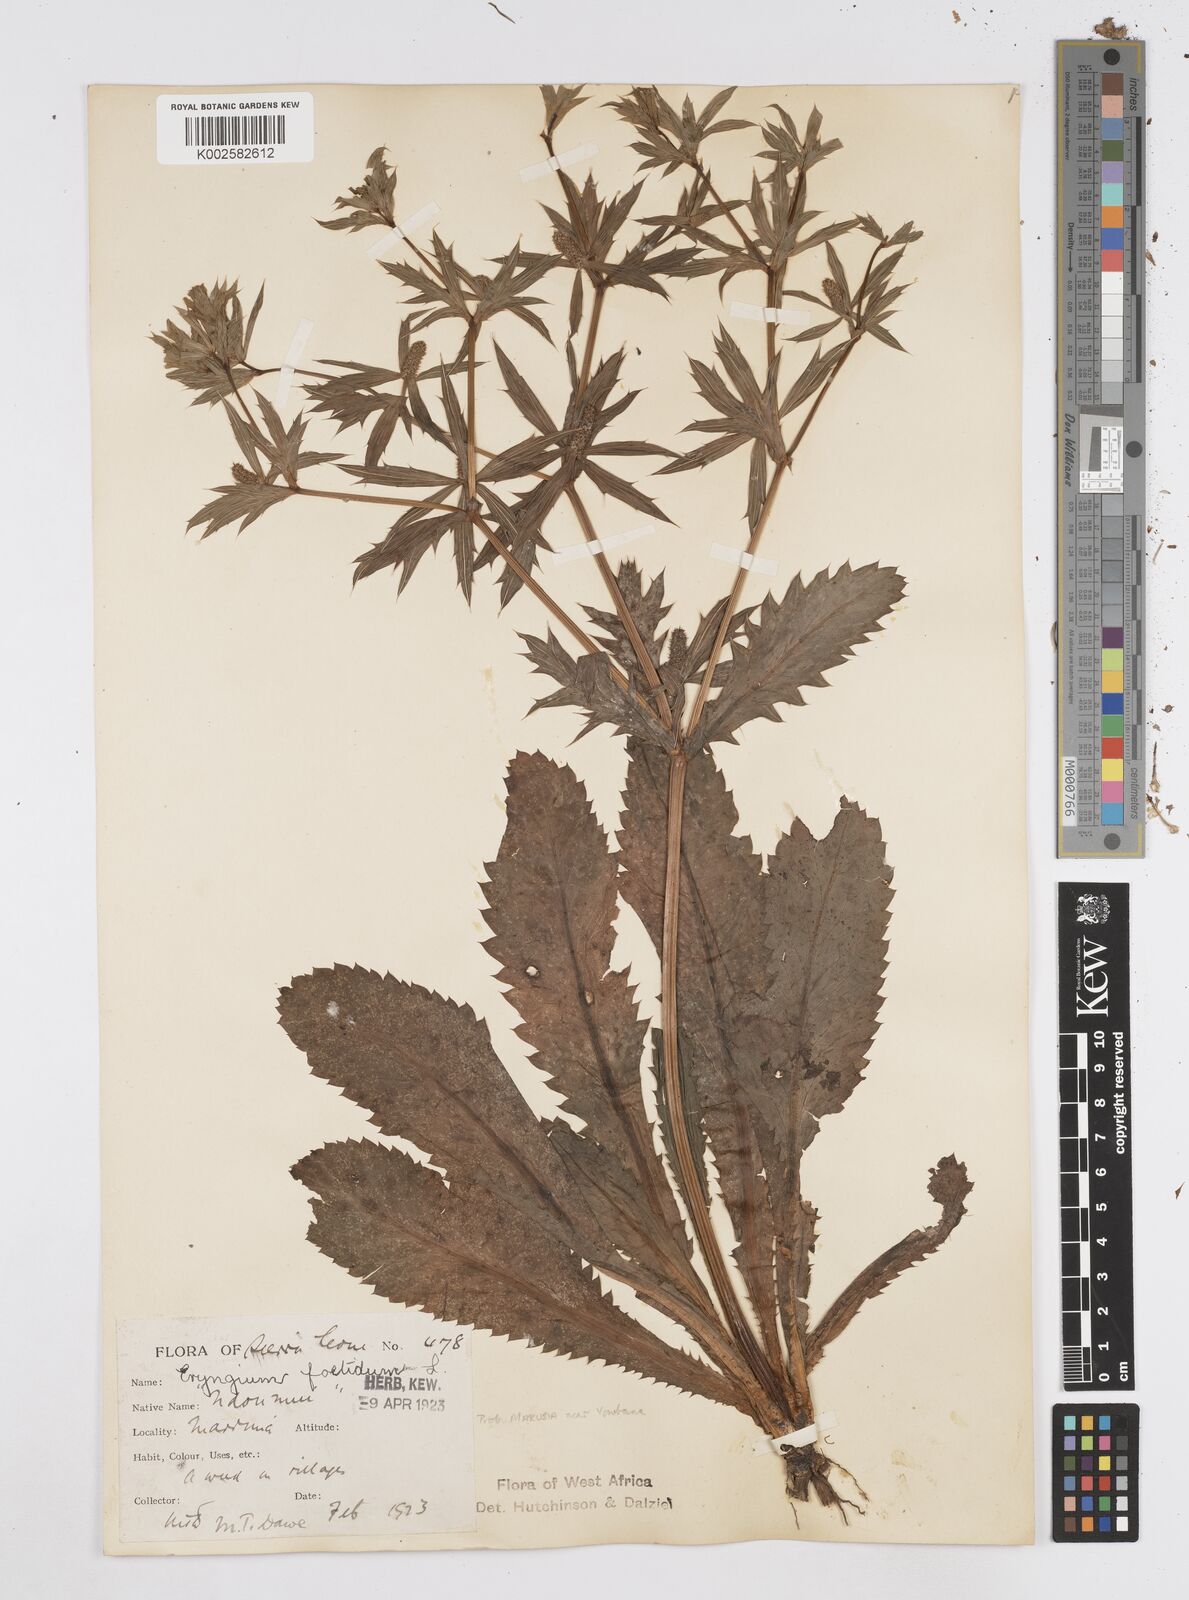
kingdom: Plantae
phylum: Tracheophyta
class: Magnoliopsida
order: Apiales
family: Apiaceae
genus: Eryngium
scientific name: Eryngium foetidum
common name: Fitweed
